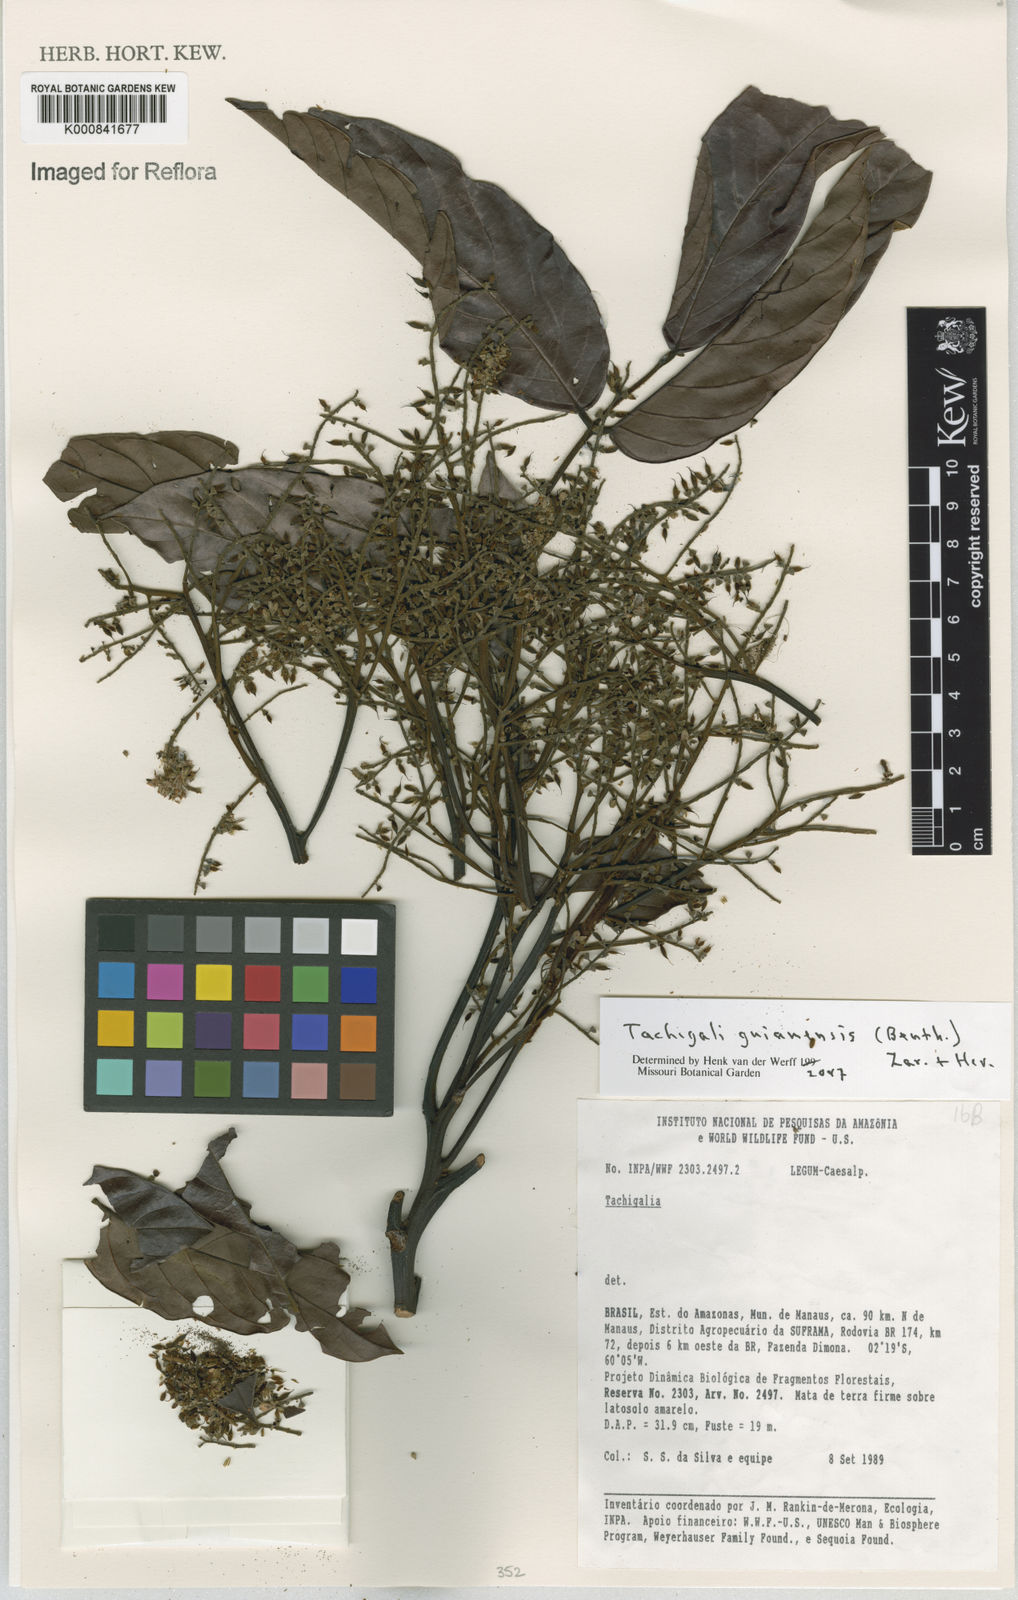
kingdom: Plantae
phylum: Tracheophyta
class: Magnoliopsida
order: Fabales
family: Fabaceae
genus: Tachigali
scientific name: Tachigali guianensis
